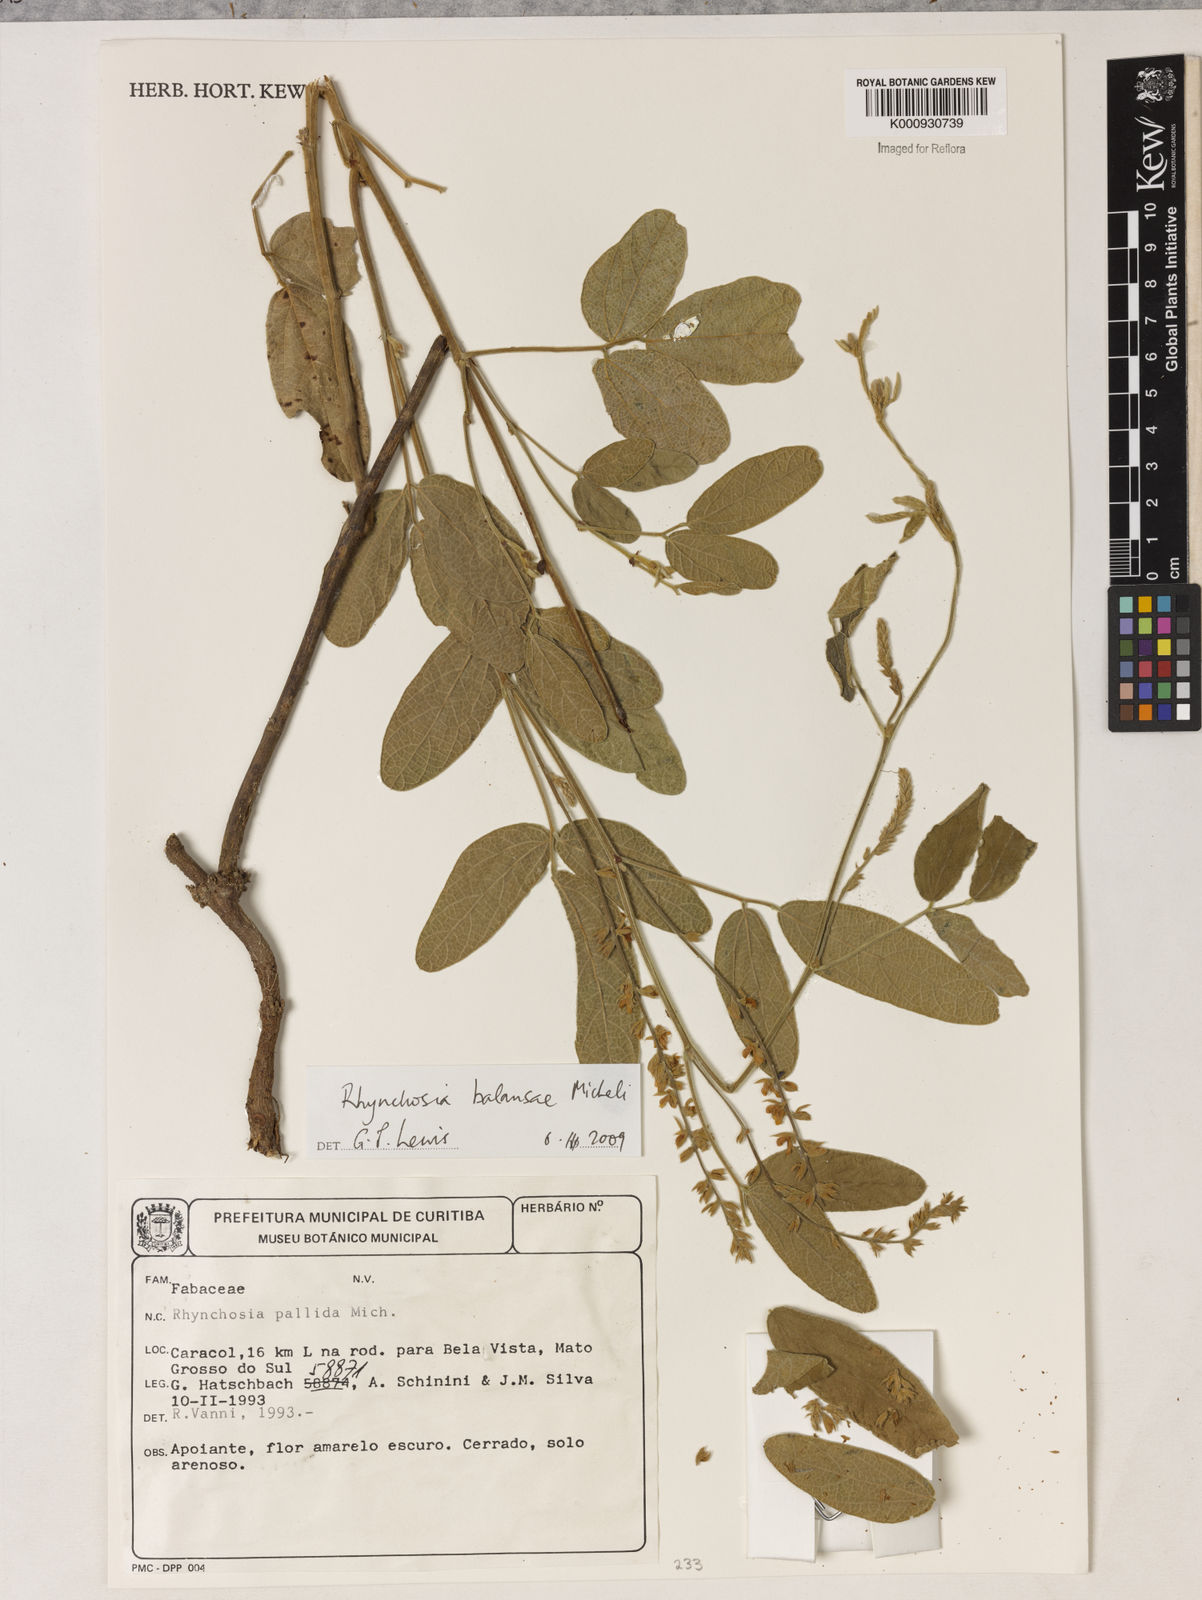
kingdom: Plantae
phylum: Tracheophyta
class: Magnoliopsida
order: Fabales
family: Fabaceae
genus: Rhynchosia
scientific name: Rhynchosia balansae
